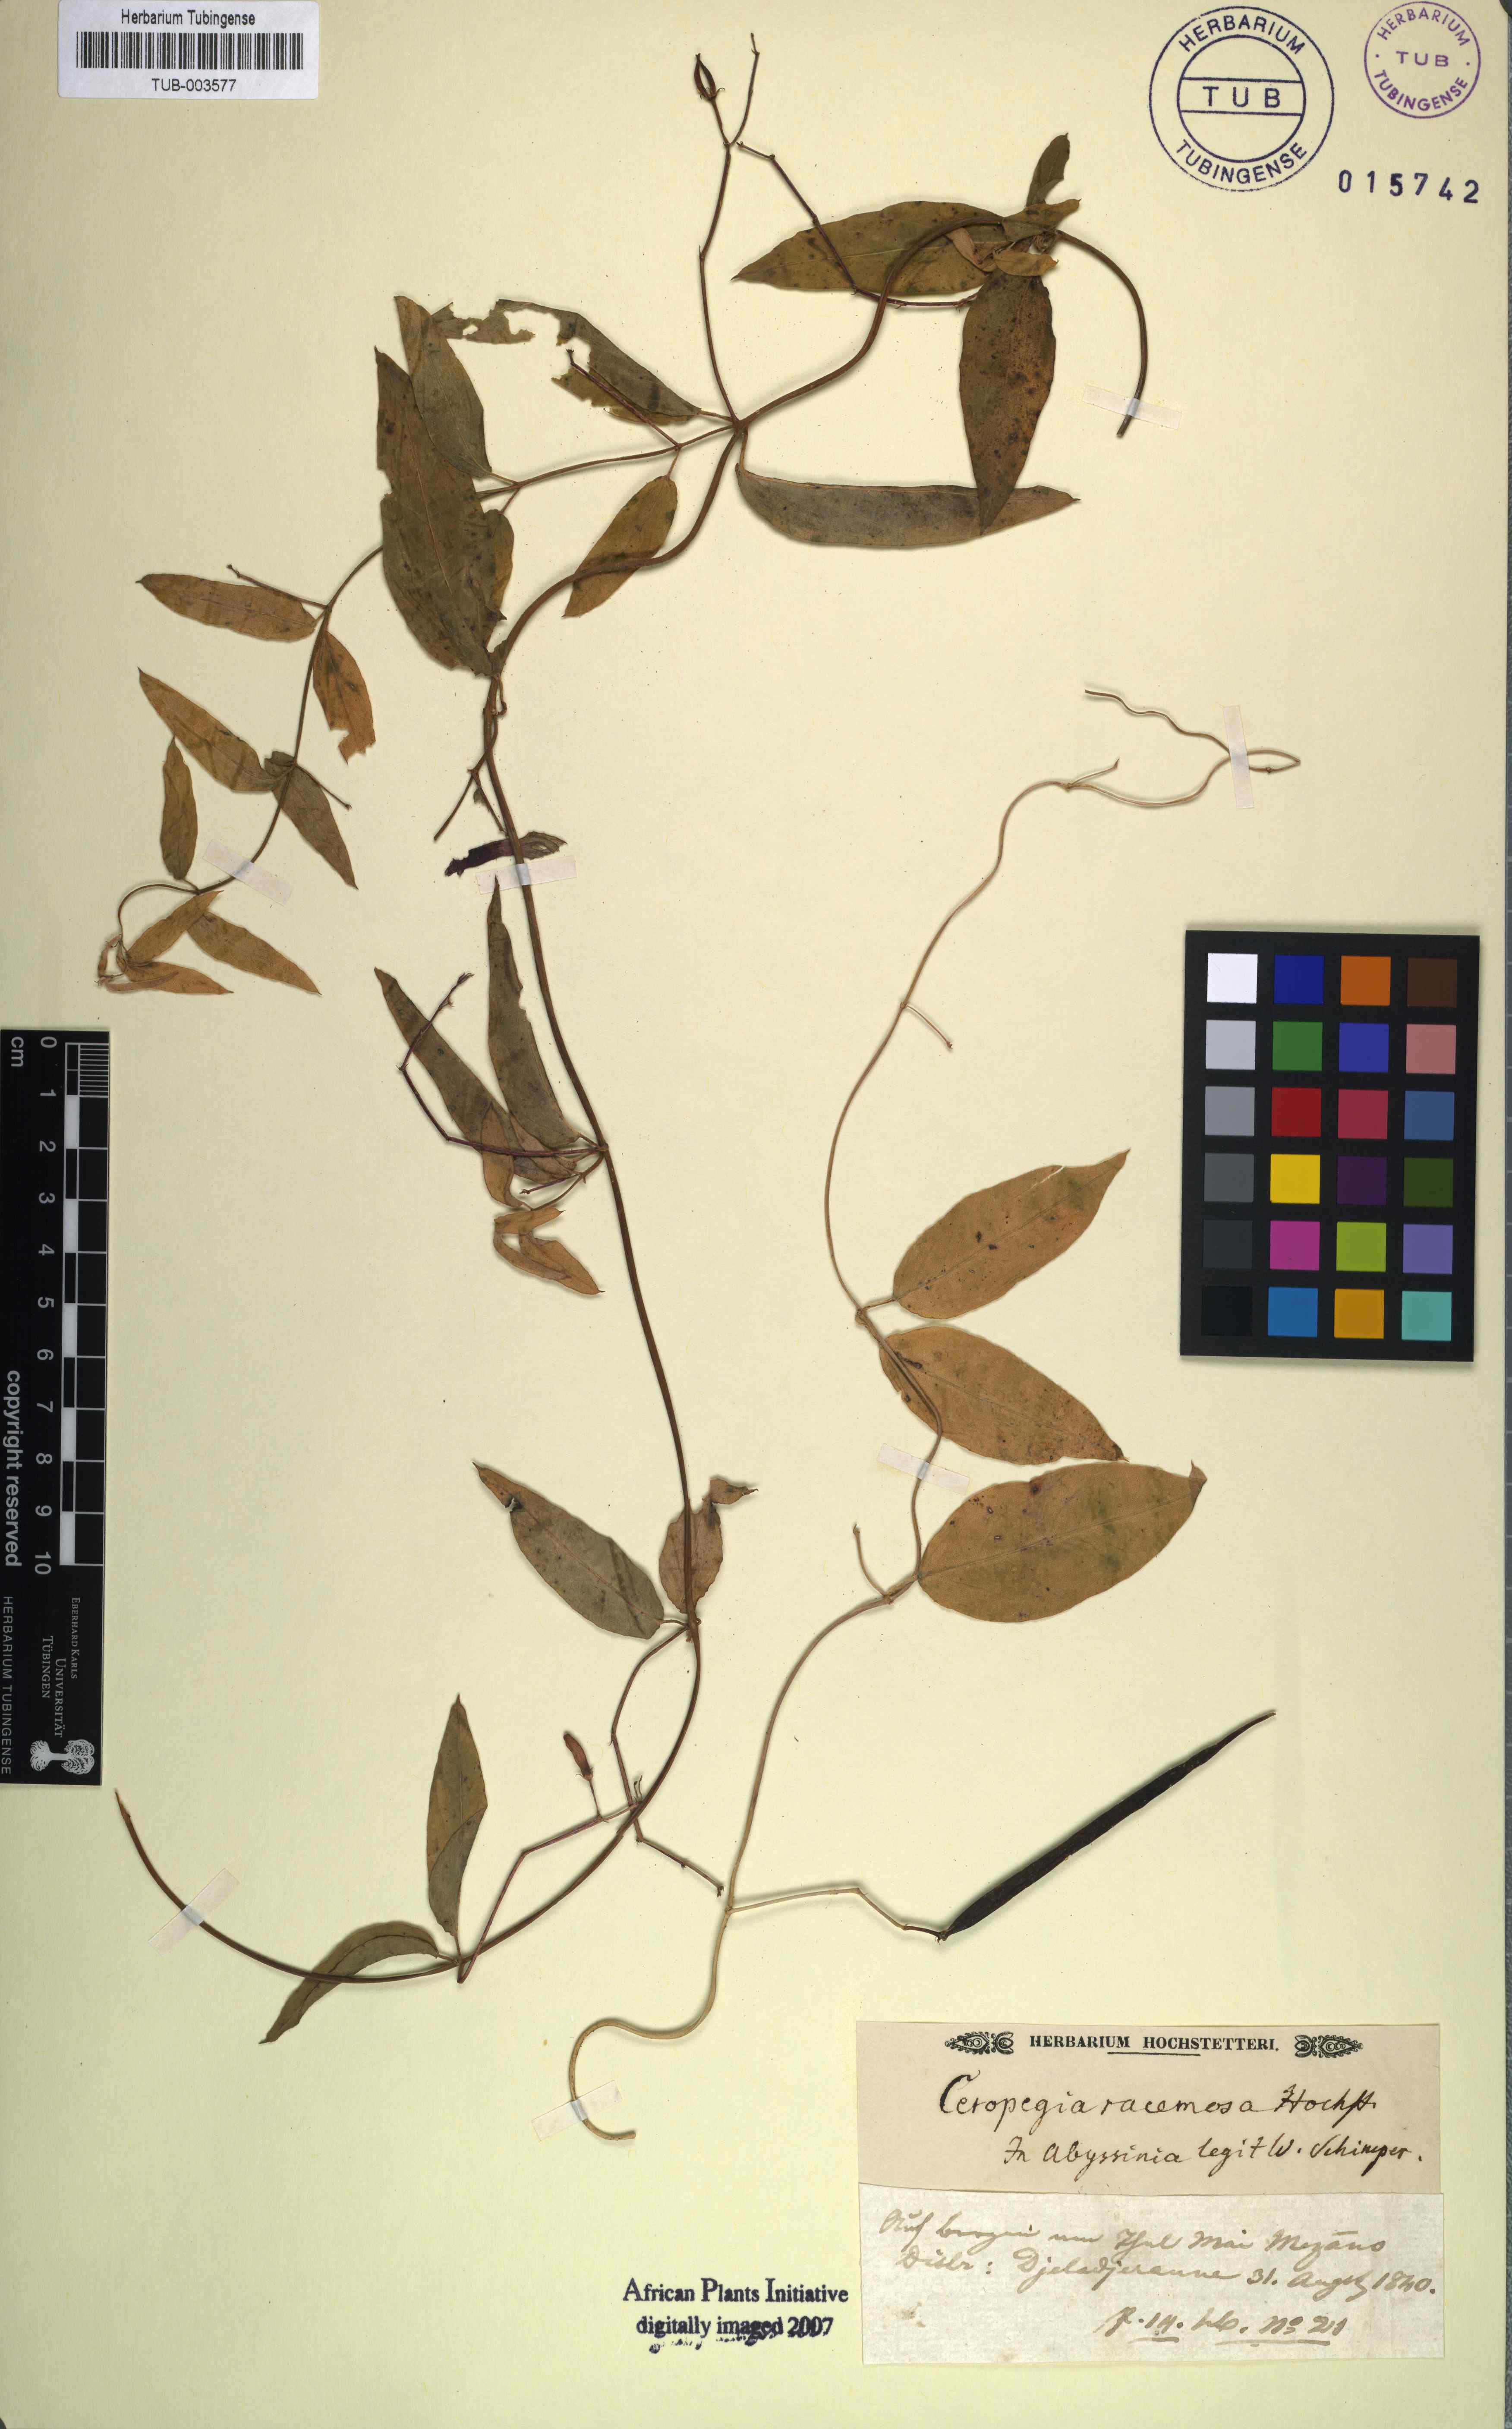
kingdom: Plantae
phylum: Tracheophyta
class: Magnoliopsida
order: Gentianales
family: Apocynaceae
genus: Ceropegia
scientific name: Ceropegia racemosa
